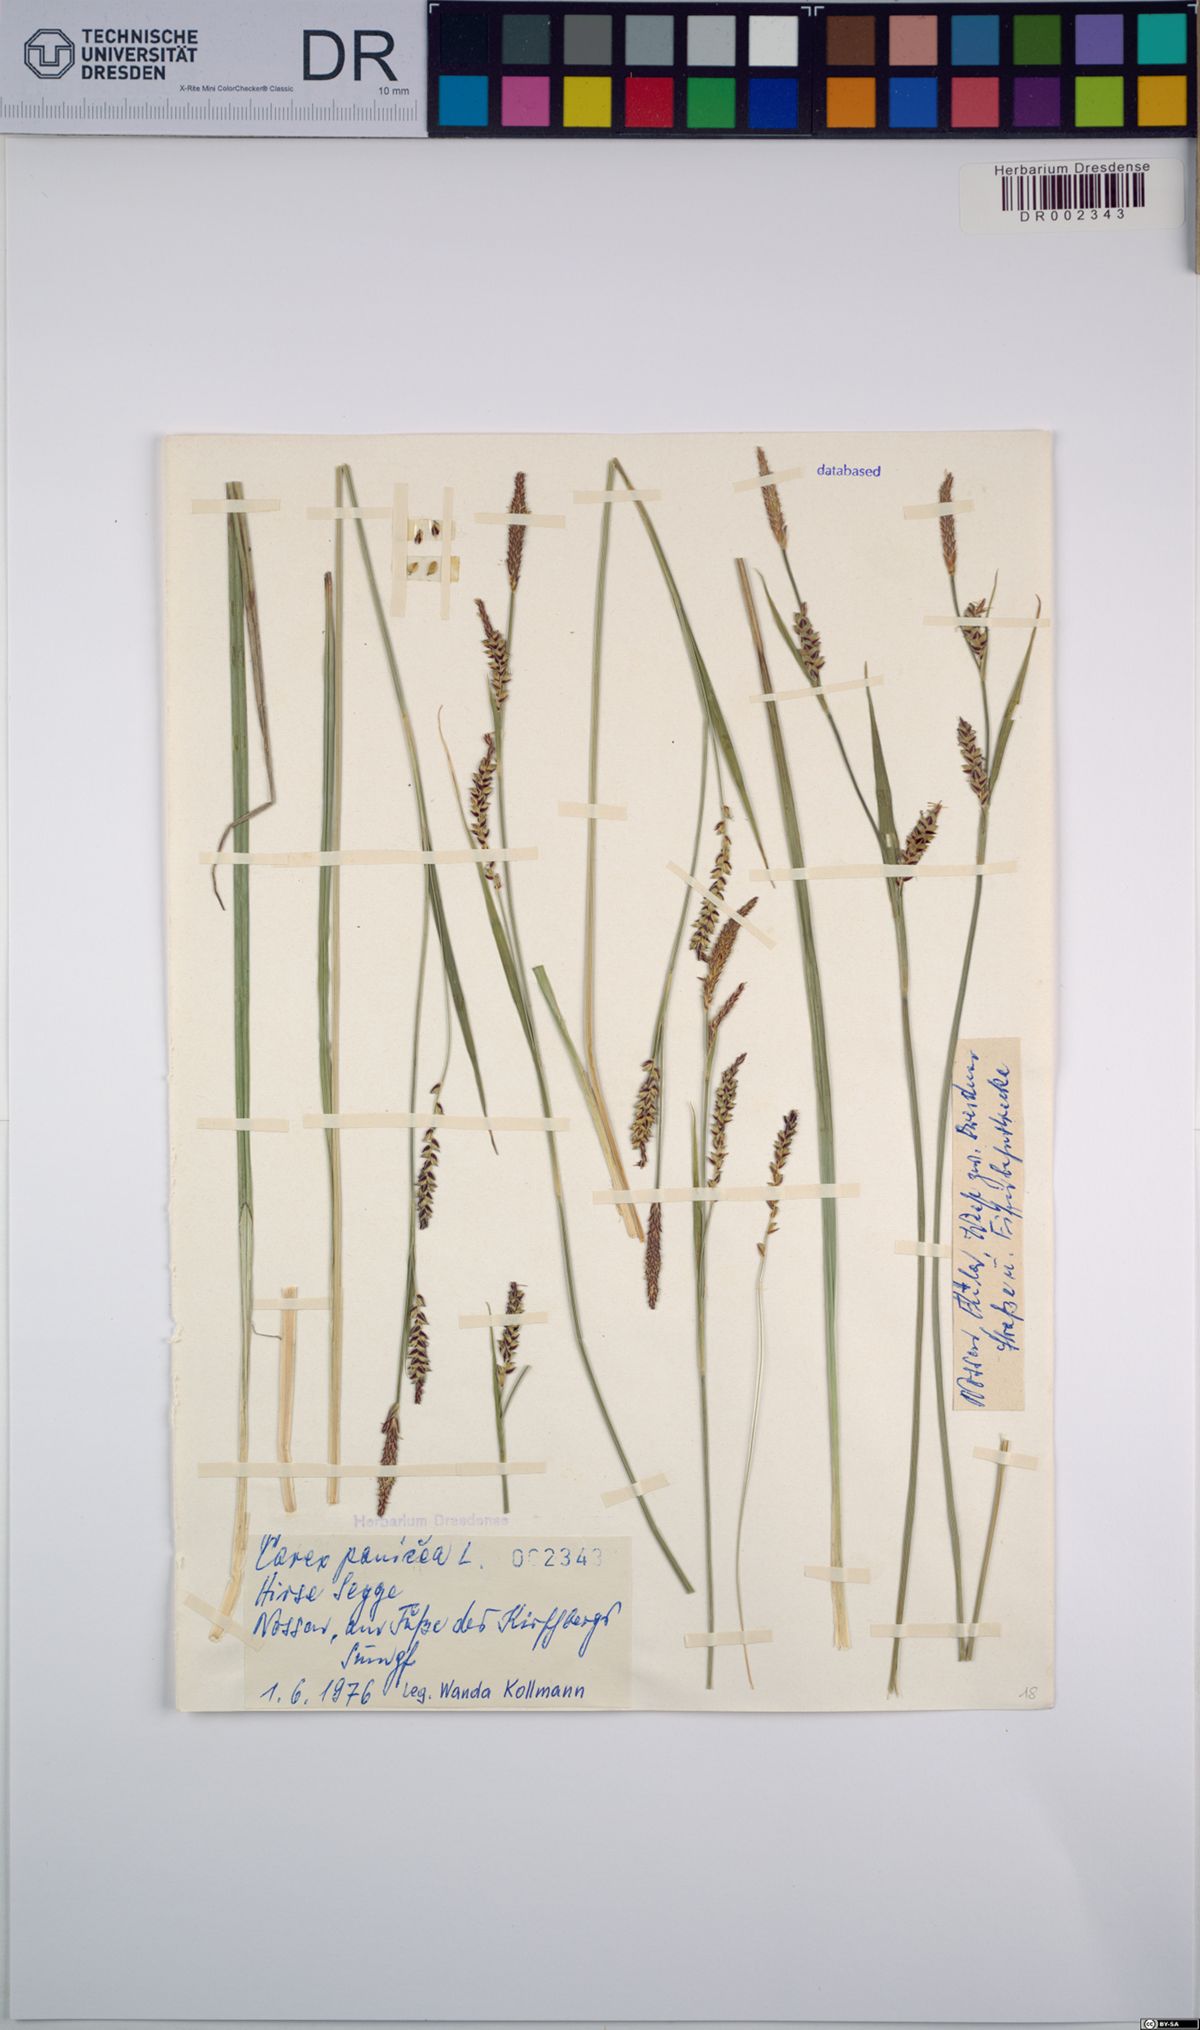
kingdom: Plantae
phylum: Tracheophyta
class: Liliopsida
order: Poales
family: Cyperaceae
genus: Carex
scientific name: Carex panicea
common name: Carnation sedge
